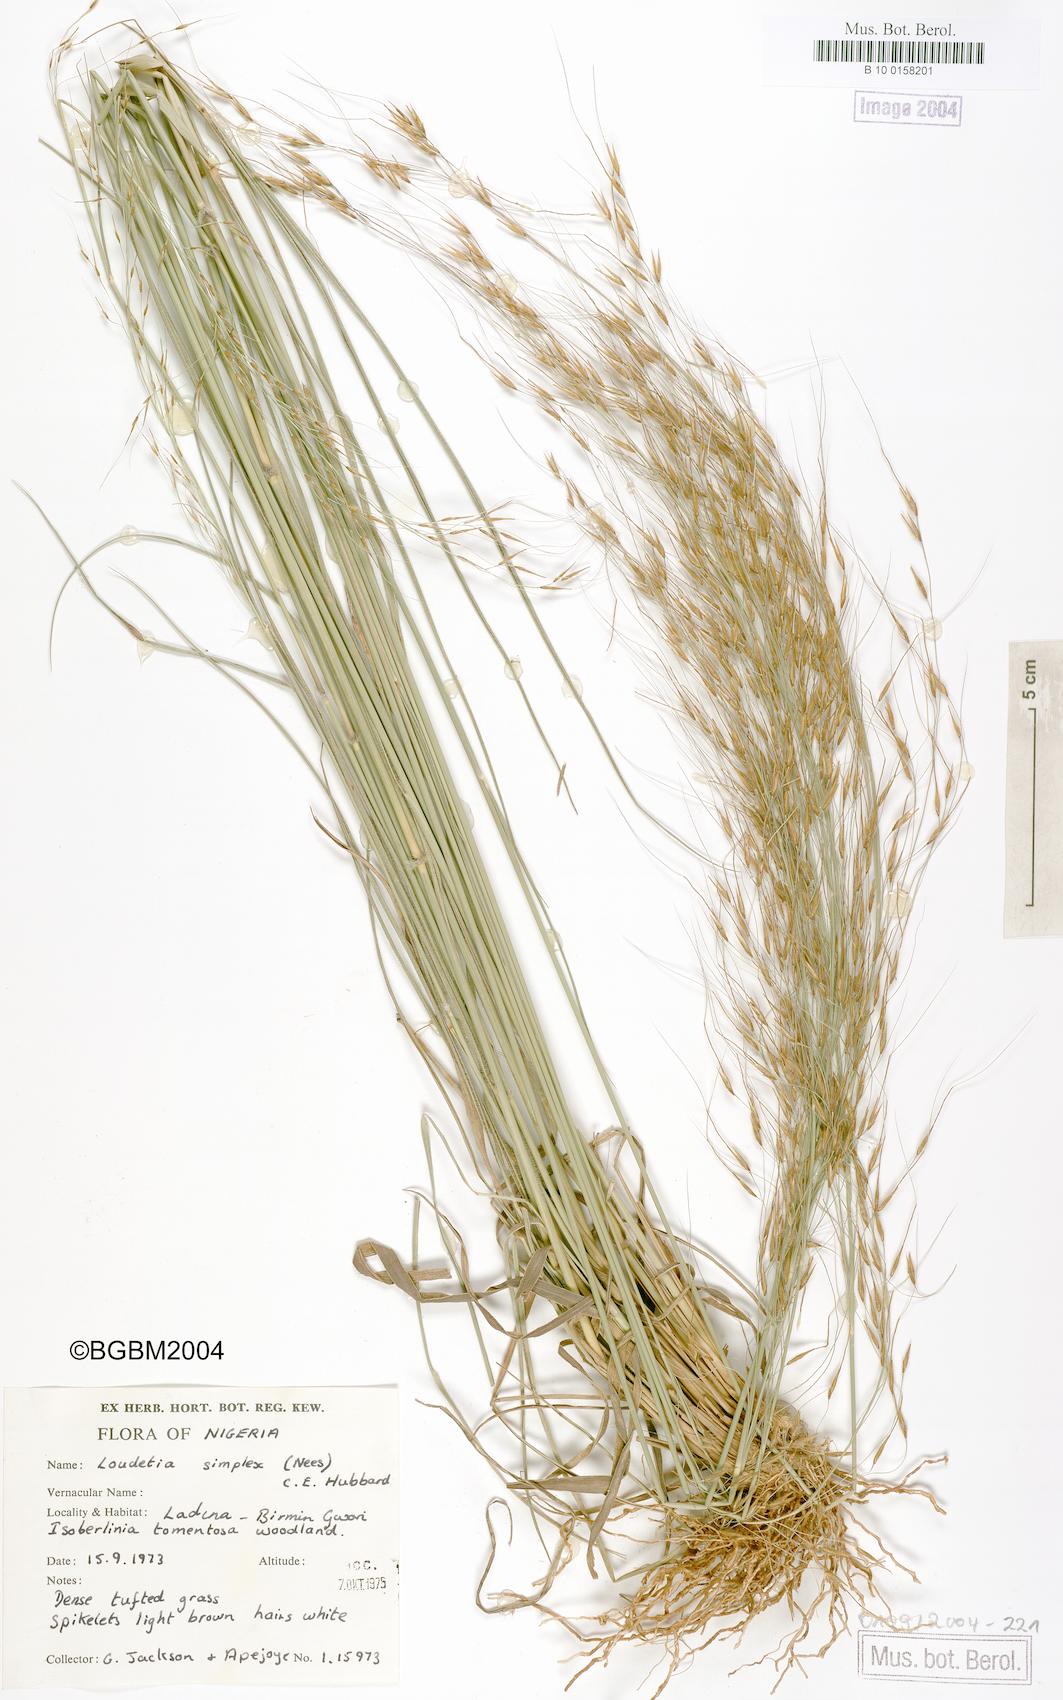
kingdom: Plantae
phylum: Tracheophyta
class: Liliopsida
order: Poales
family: Poaceae
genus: Loudetia
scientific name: Loudetia simplex
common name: Common russet grass
